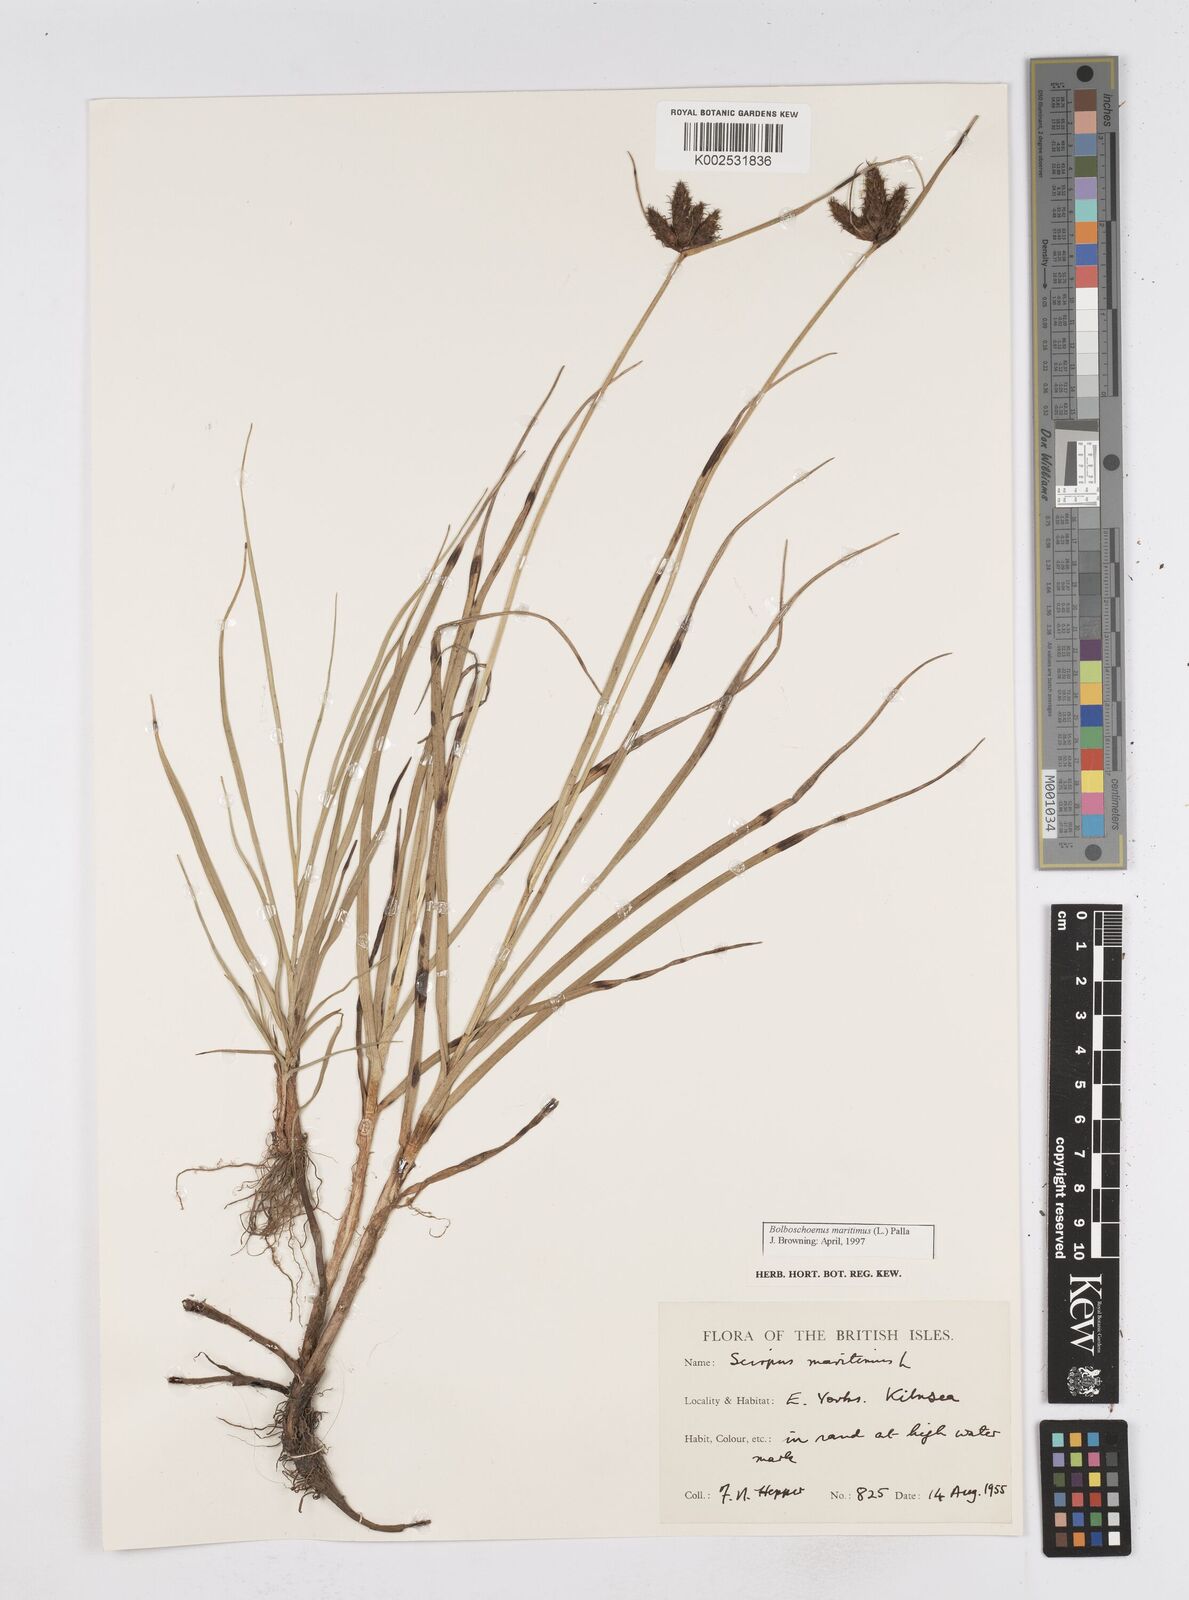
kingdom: Plantae
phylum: Tracheophyta
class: Liliopsida
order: Poales
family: Cyperaceae
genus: Bolboschoenus
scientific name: Bolboschoenus maritimus
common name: Sea club-rush
